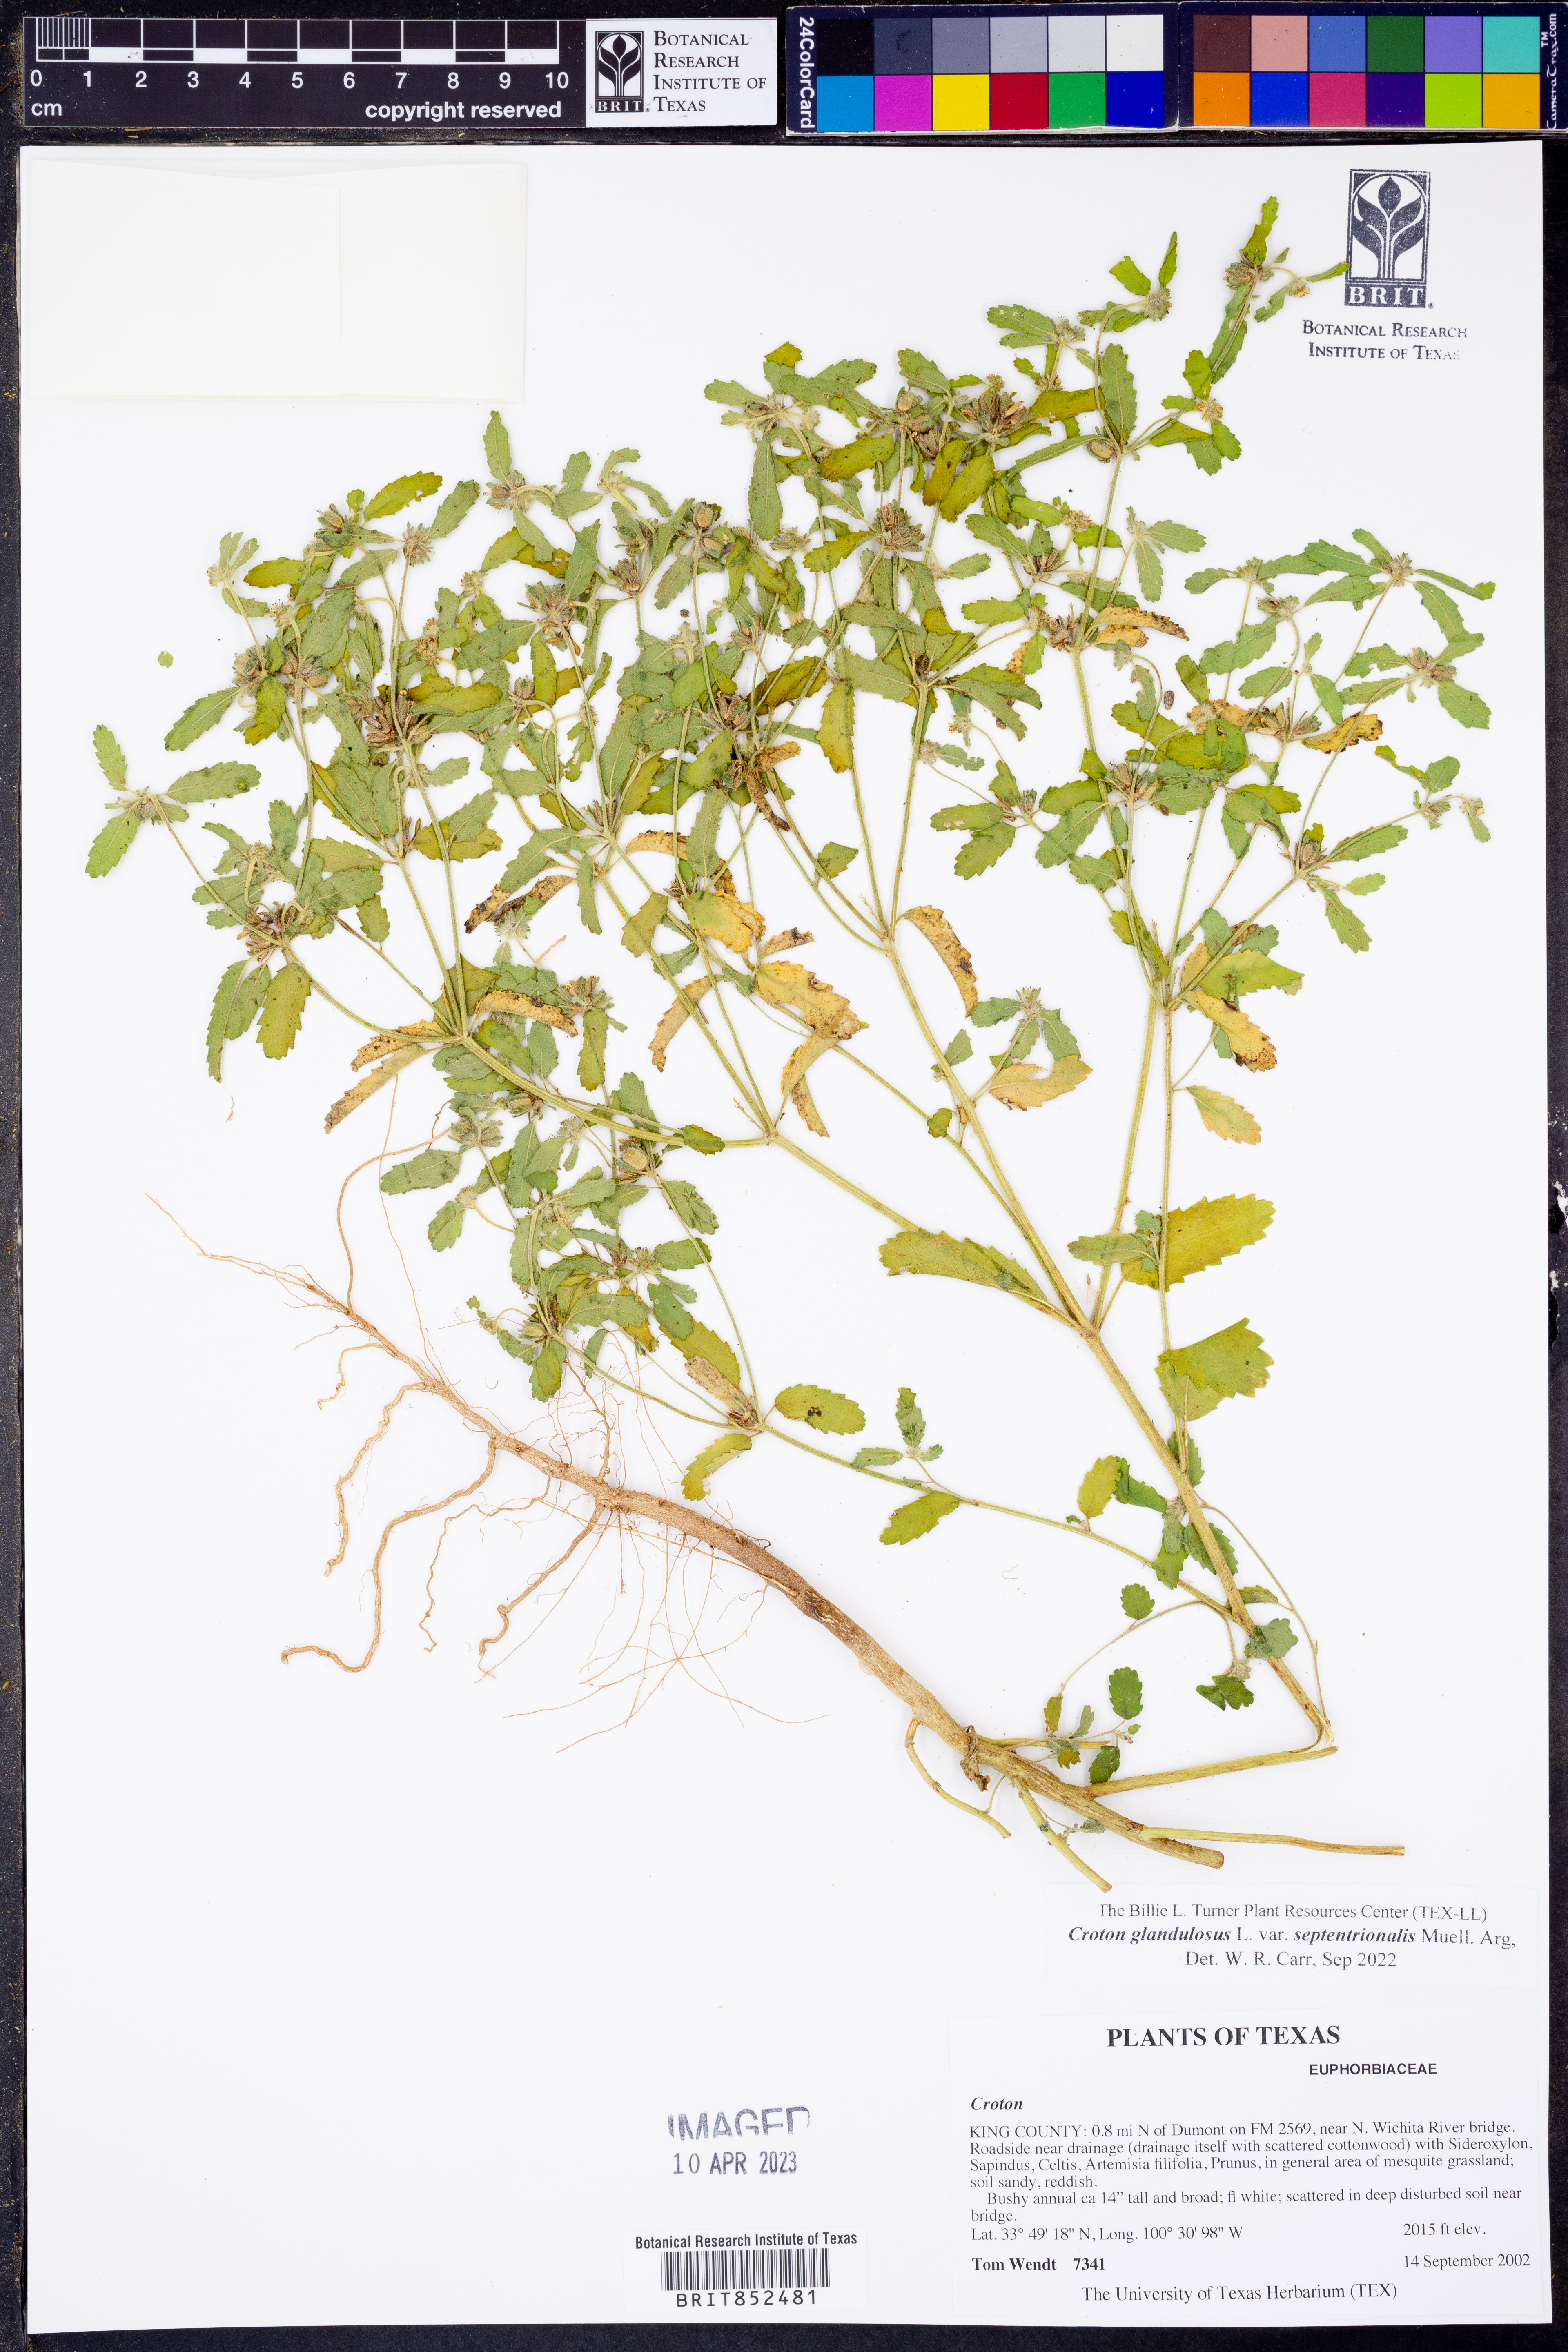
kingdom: Plantae
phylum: Tracheophyta
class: Magnoliopsida
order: Malpighiales
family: Euphorbiaceae
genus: Croton
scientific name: Croton glandulosus
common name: Tropic croton
